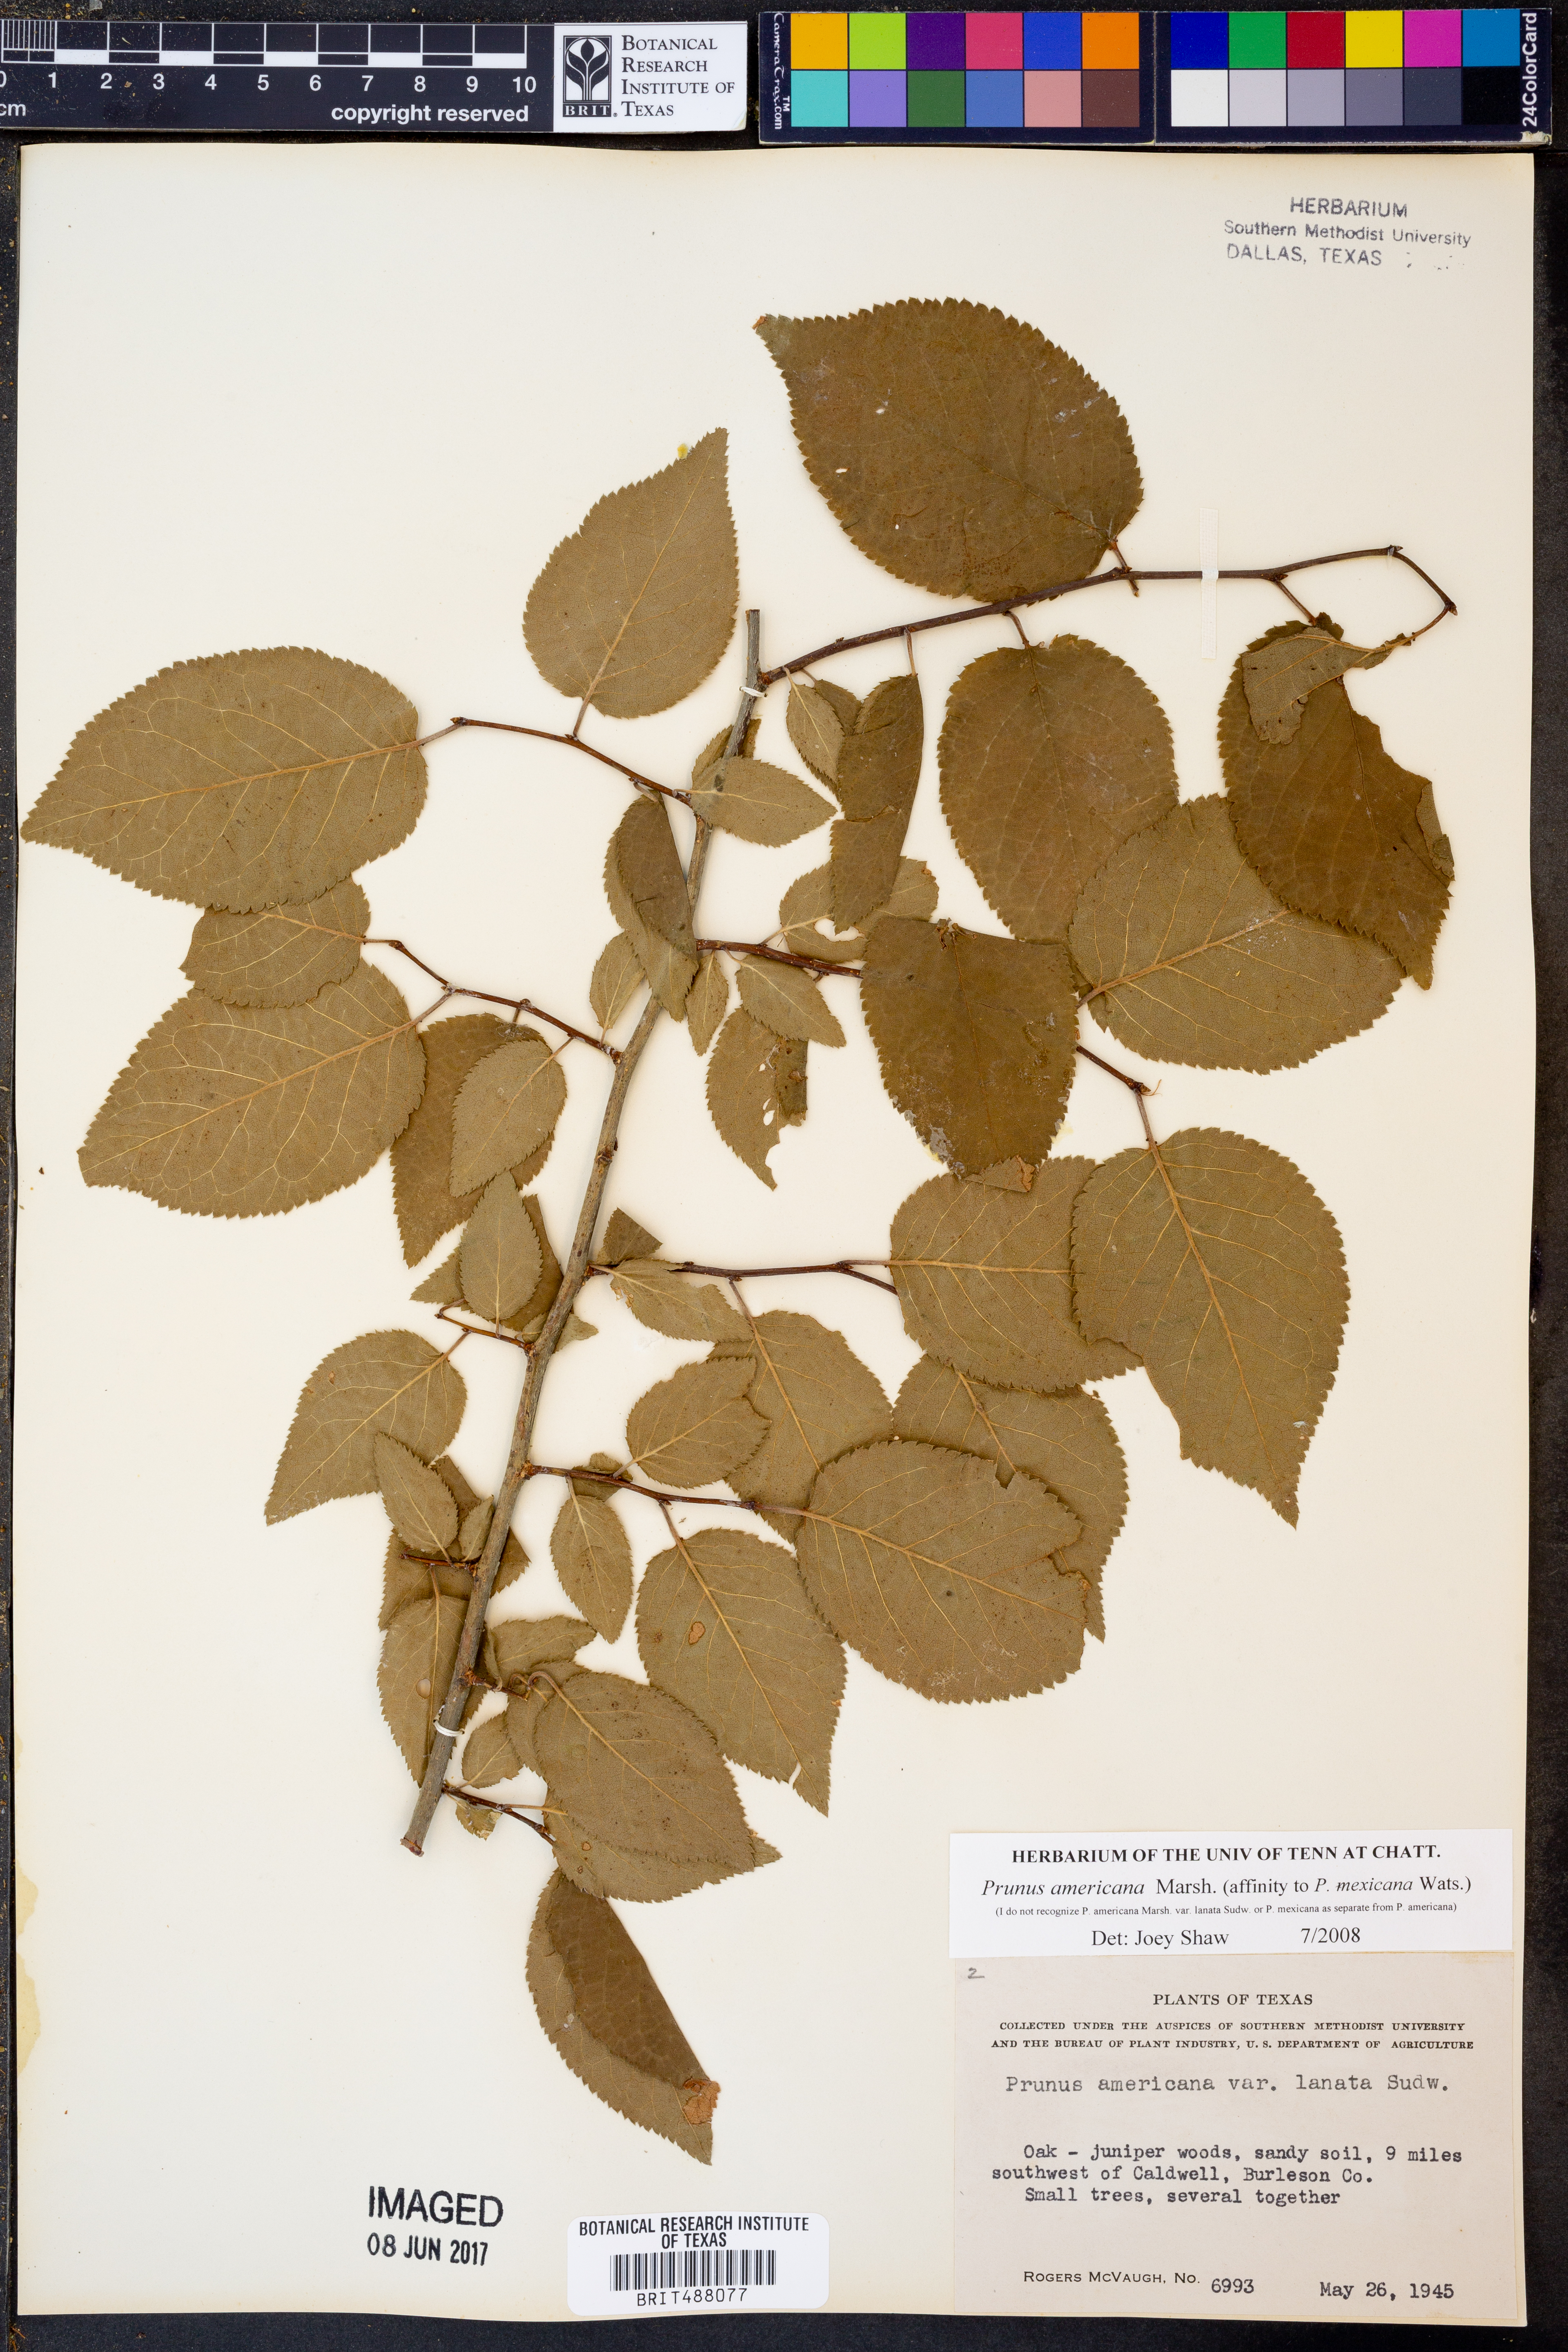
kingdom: Plantae
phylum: Tracheophyta
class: Magnoliopsida
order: Rosales
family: Rosaceae
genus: Prunus
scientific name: Prunus americana
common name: American plum
